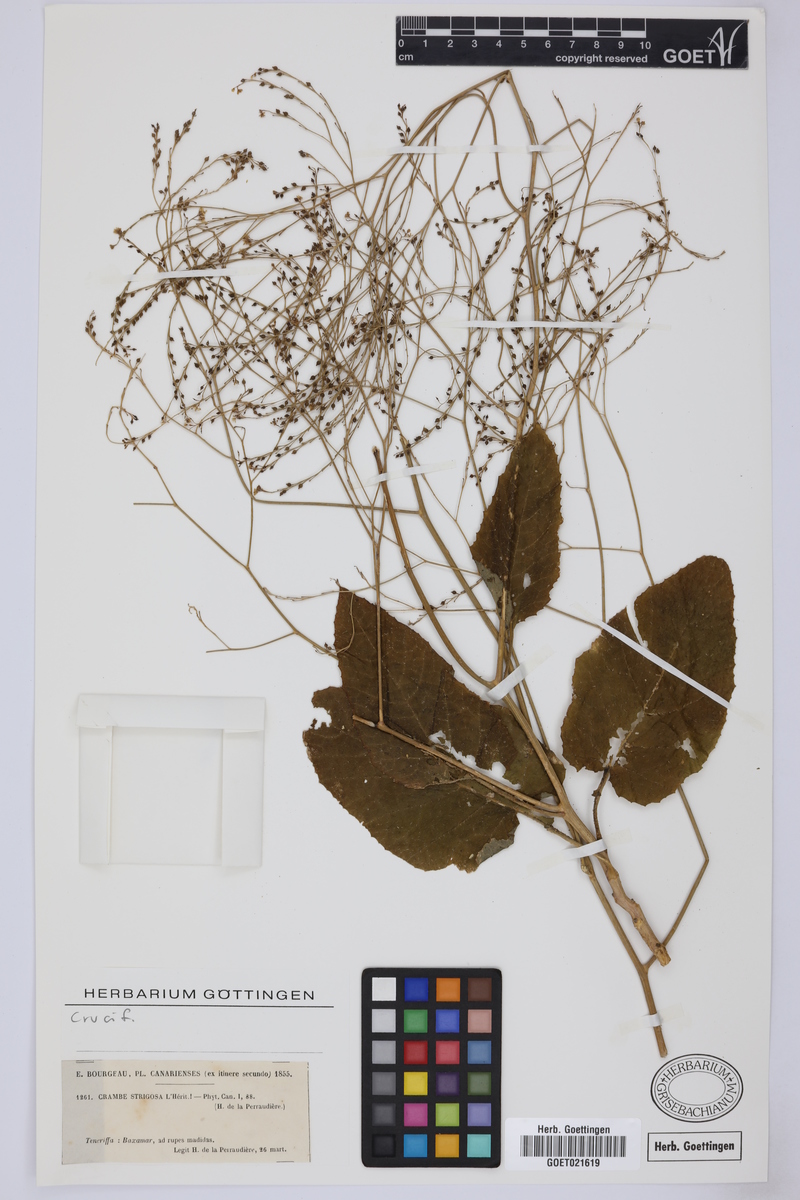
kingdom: Plantae
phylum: Tracheophyta
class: Magnoliopsida
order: Brassicales
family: Brassicaceae
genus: Crambe
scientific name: Crambe strigosa
